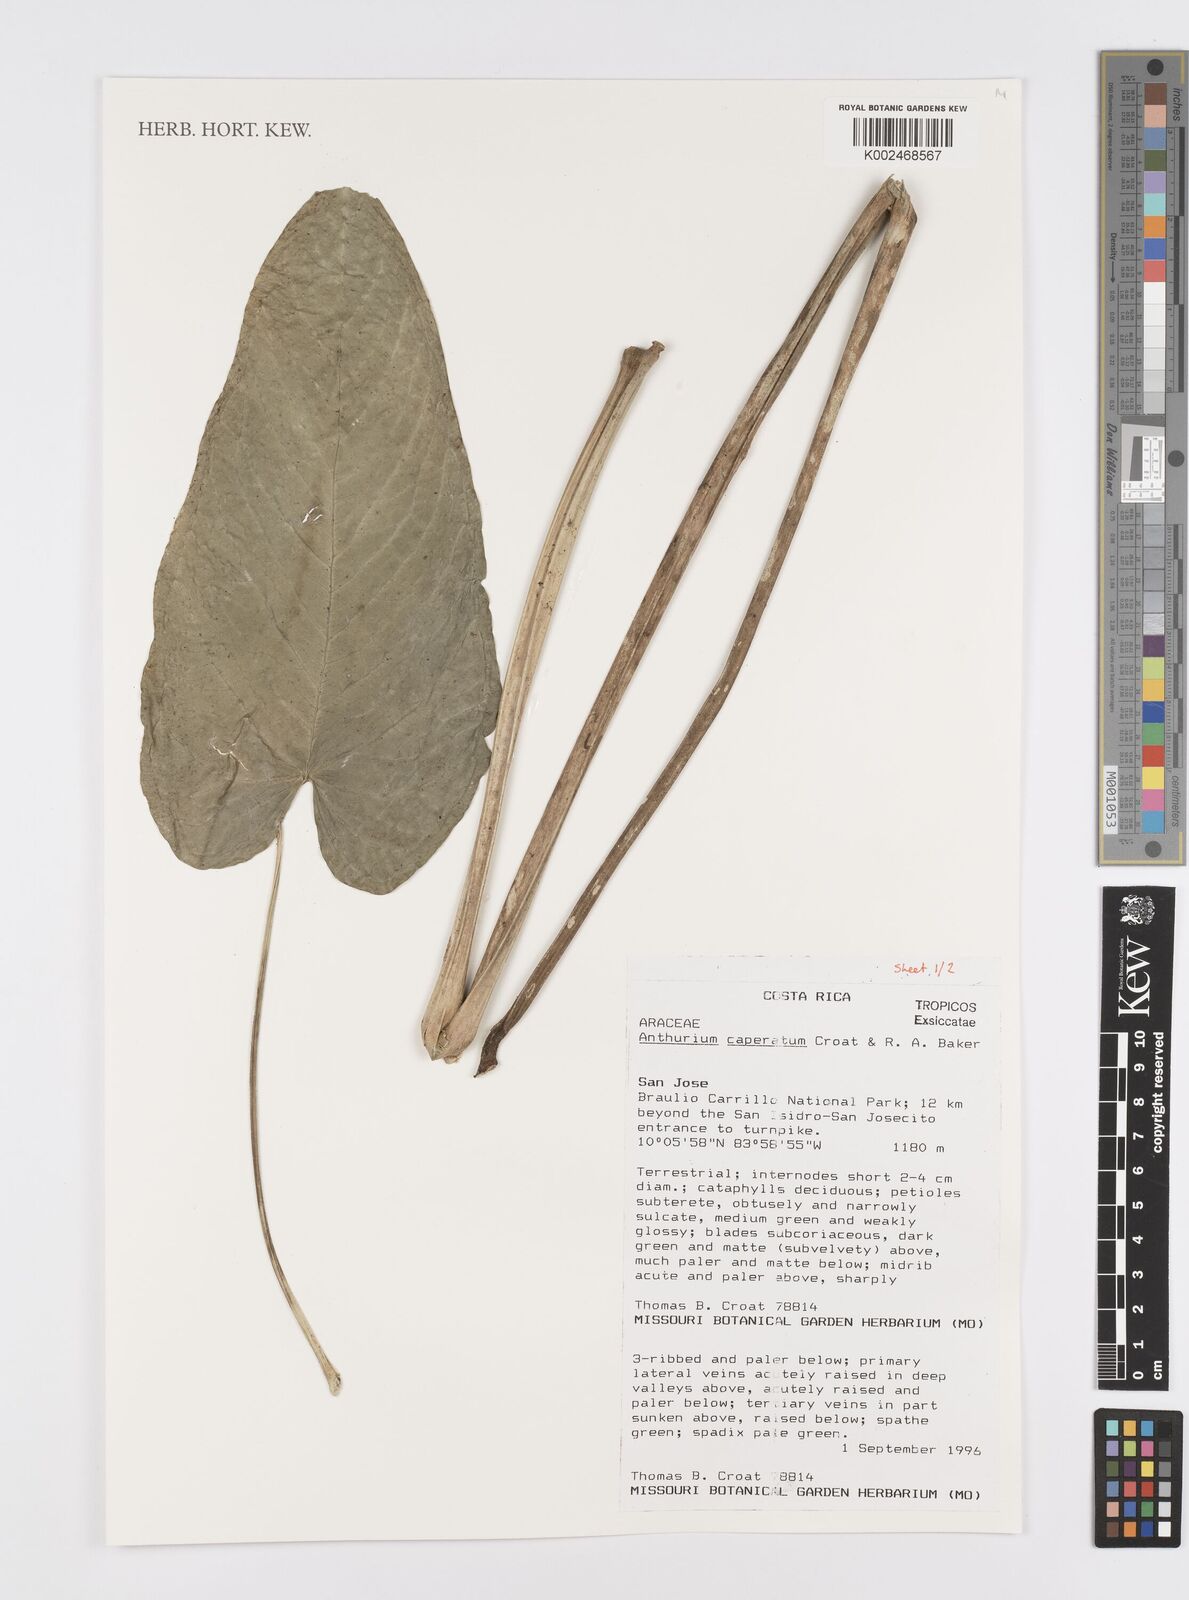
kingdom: Plantae
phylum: Tracheophyta
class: Liliopsida
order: Alismatales
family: Araceae
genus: Anthurium
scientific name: Anthurium caperatum
